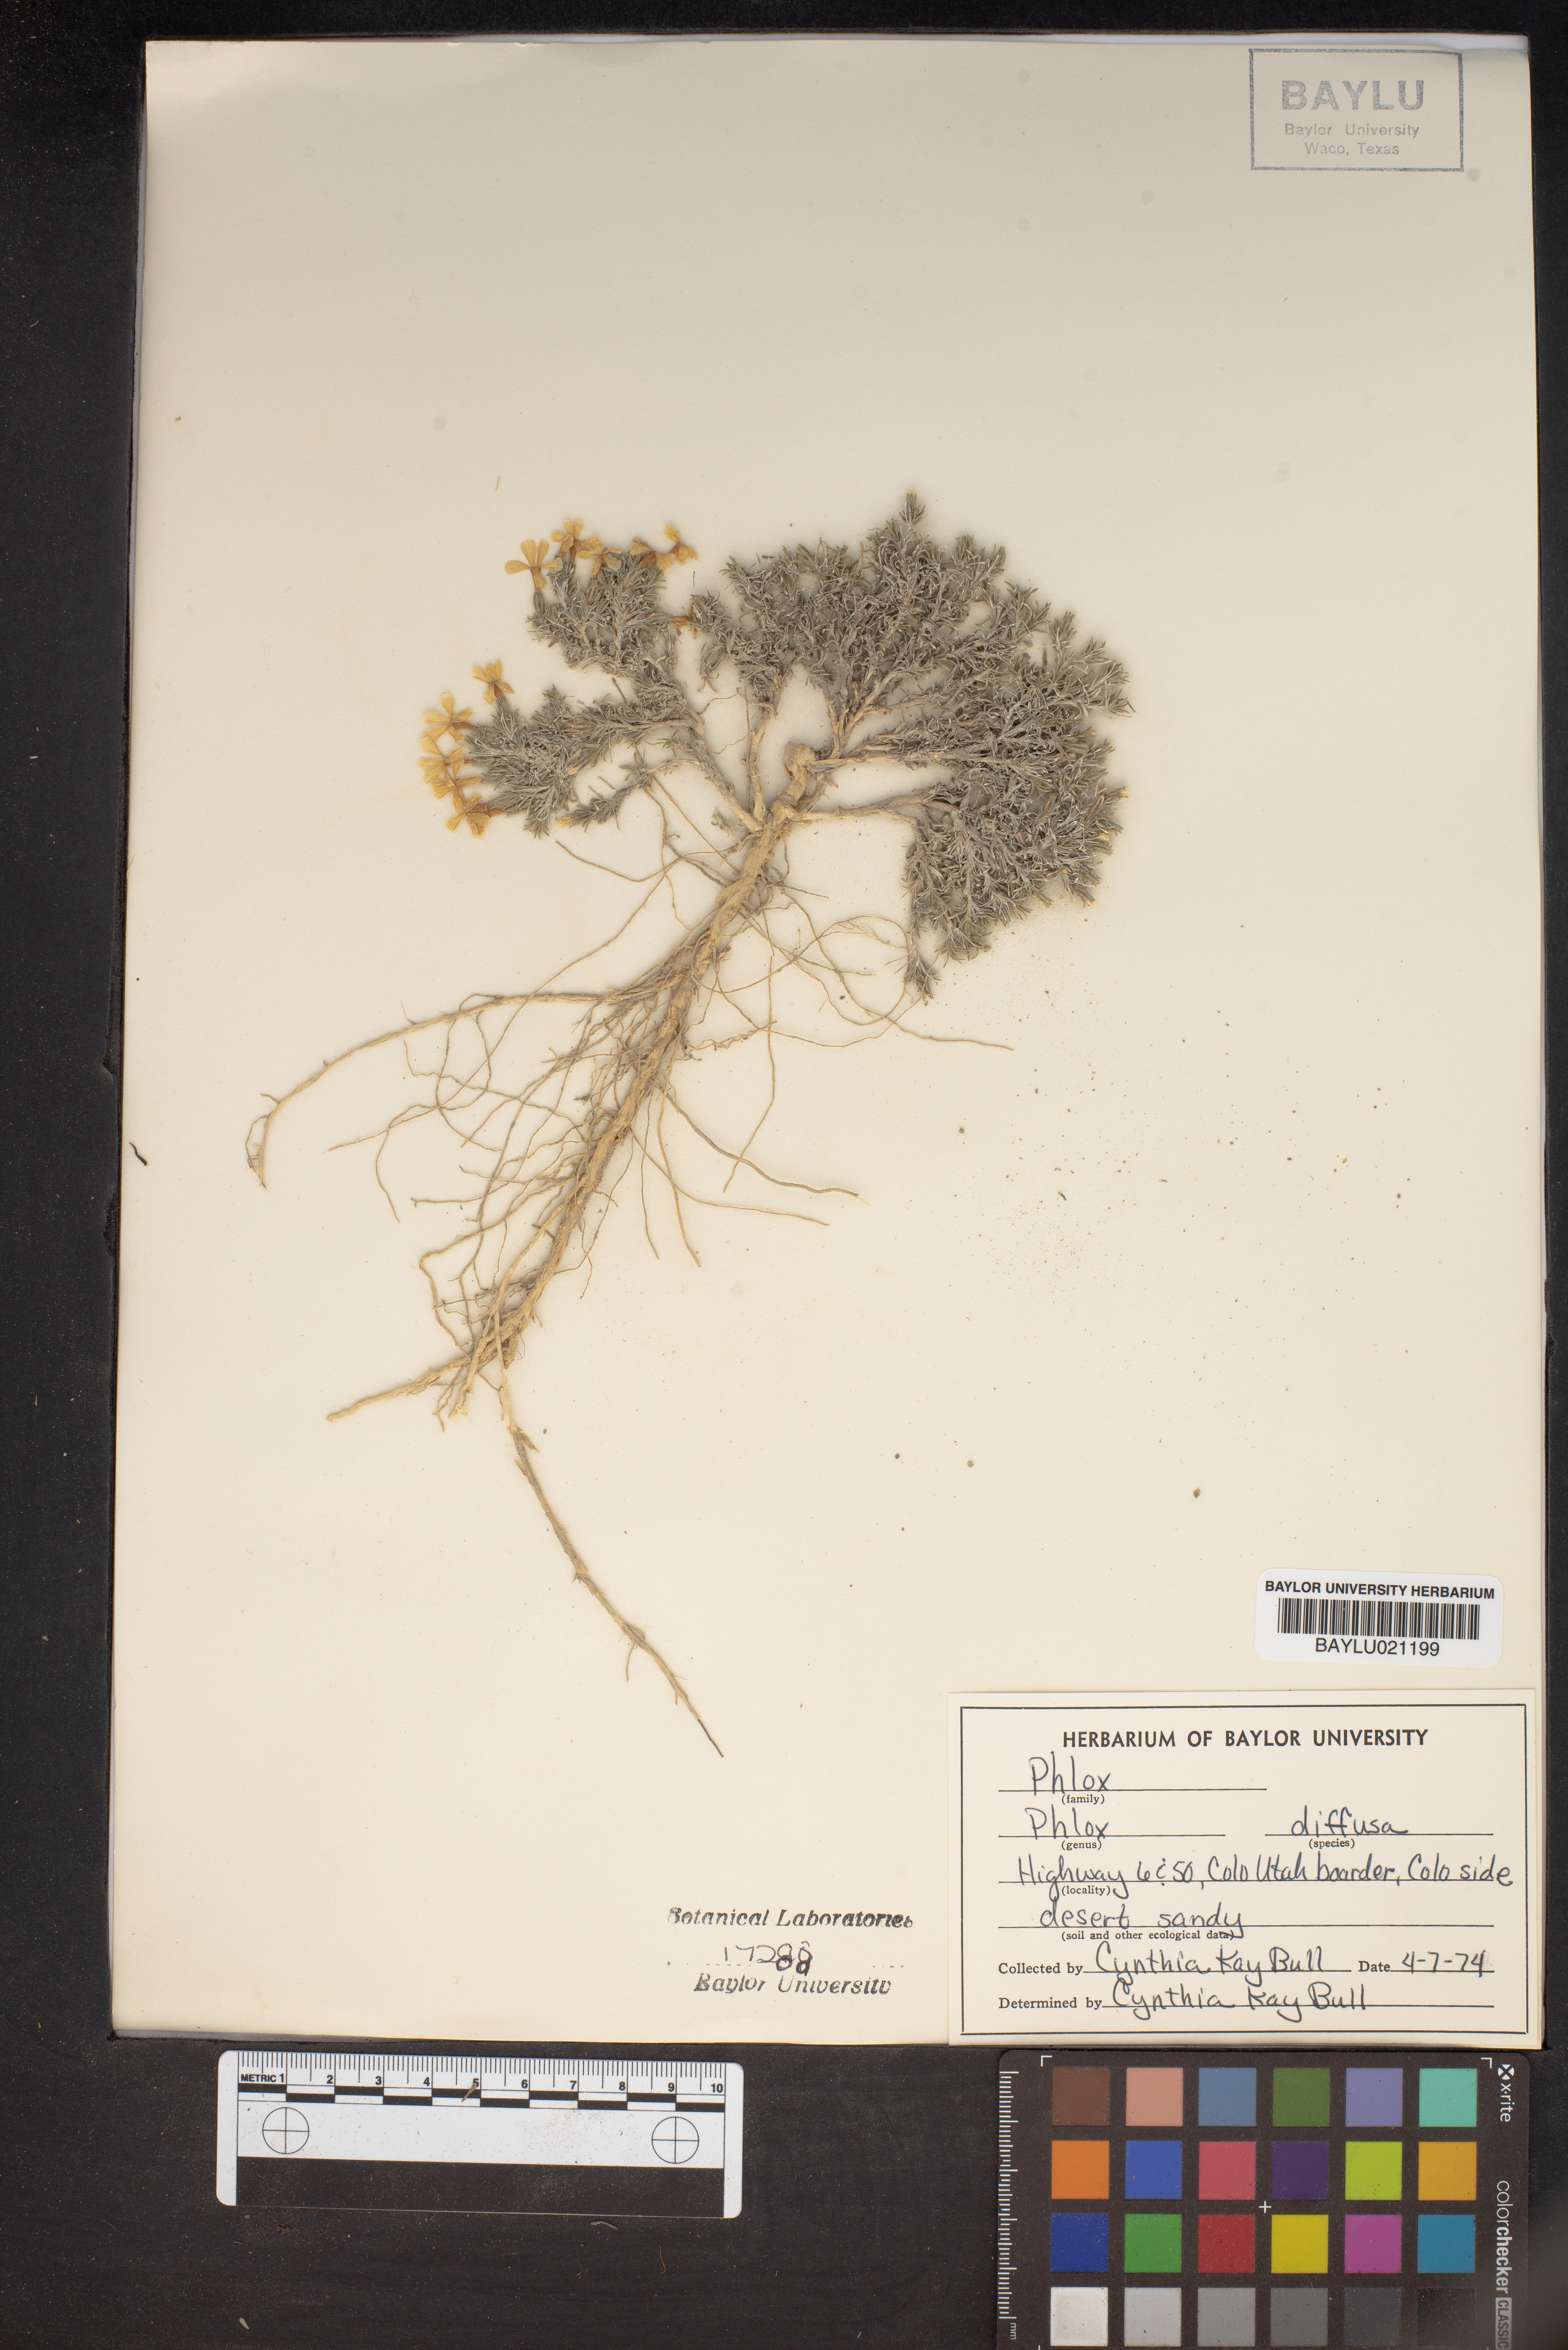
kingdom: Plantae
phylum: Tracheophyta
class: Magnoliopsida
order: Ericales
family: Polemoniaceae
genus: Phlox
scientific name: Phlox diffusa
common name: Mat phlox
